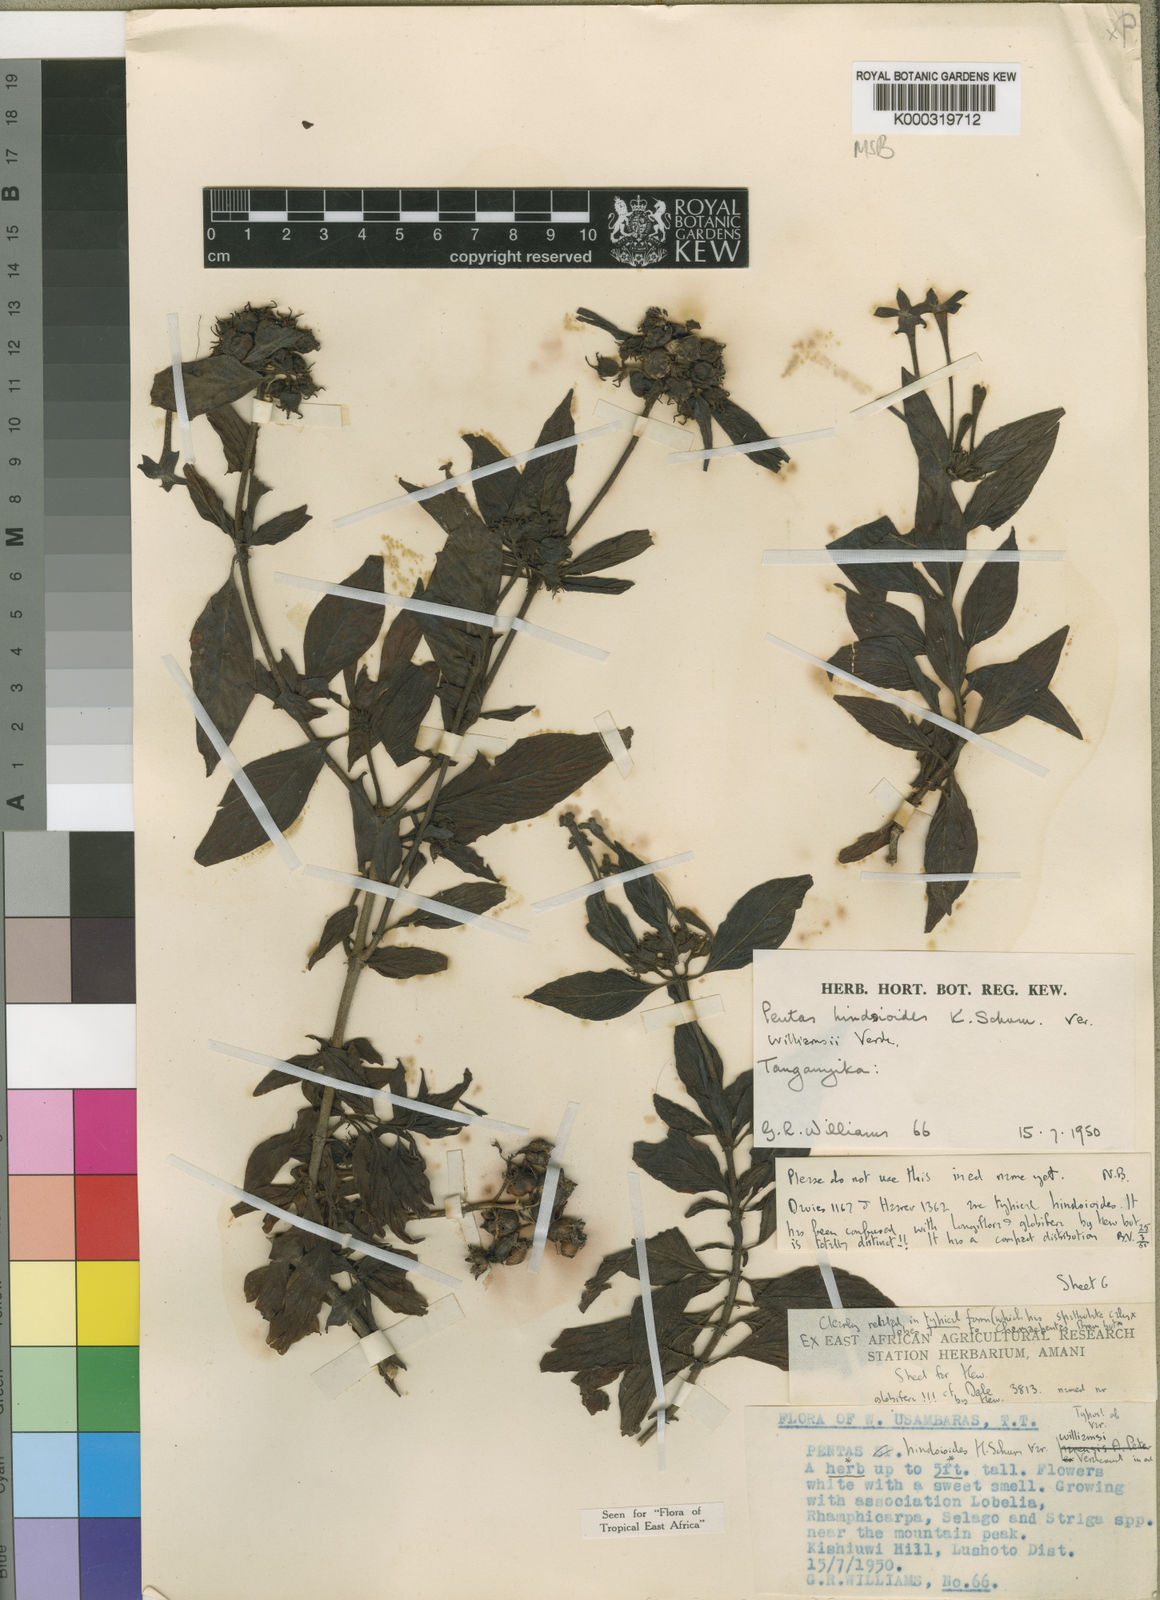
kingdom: Plantae
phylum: Tracheophyta
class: Magnoliopsida
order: Gentianales
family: Rubiaceae
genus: Chamaepentas
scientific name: Chamaepentas hindsioides
